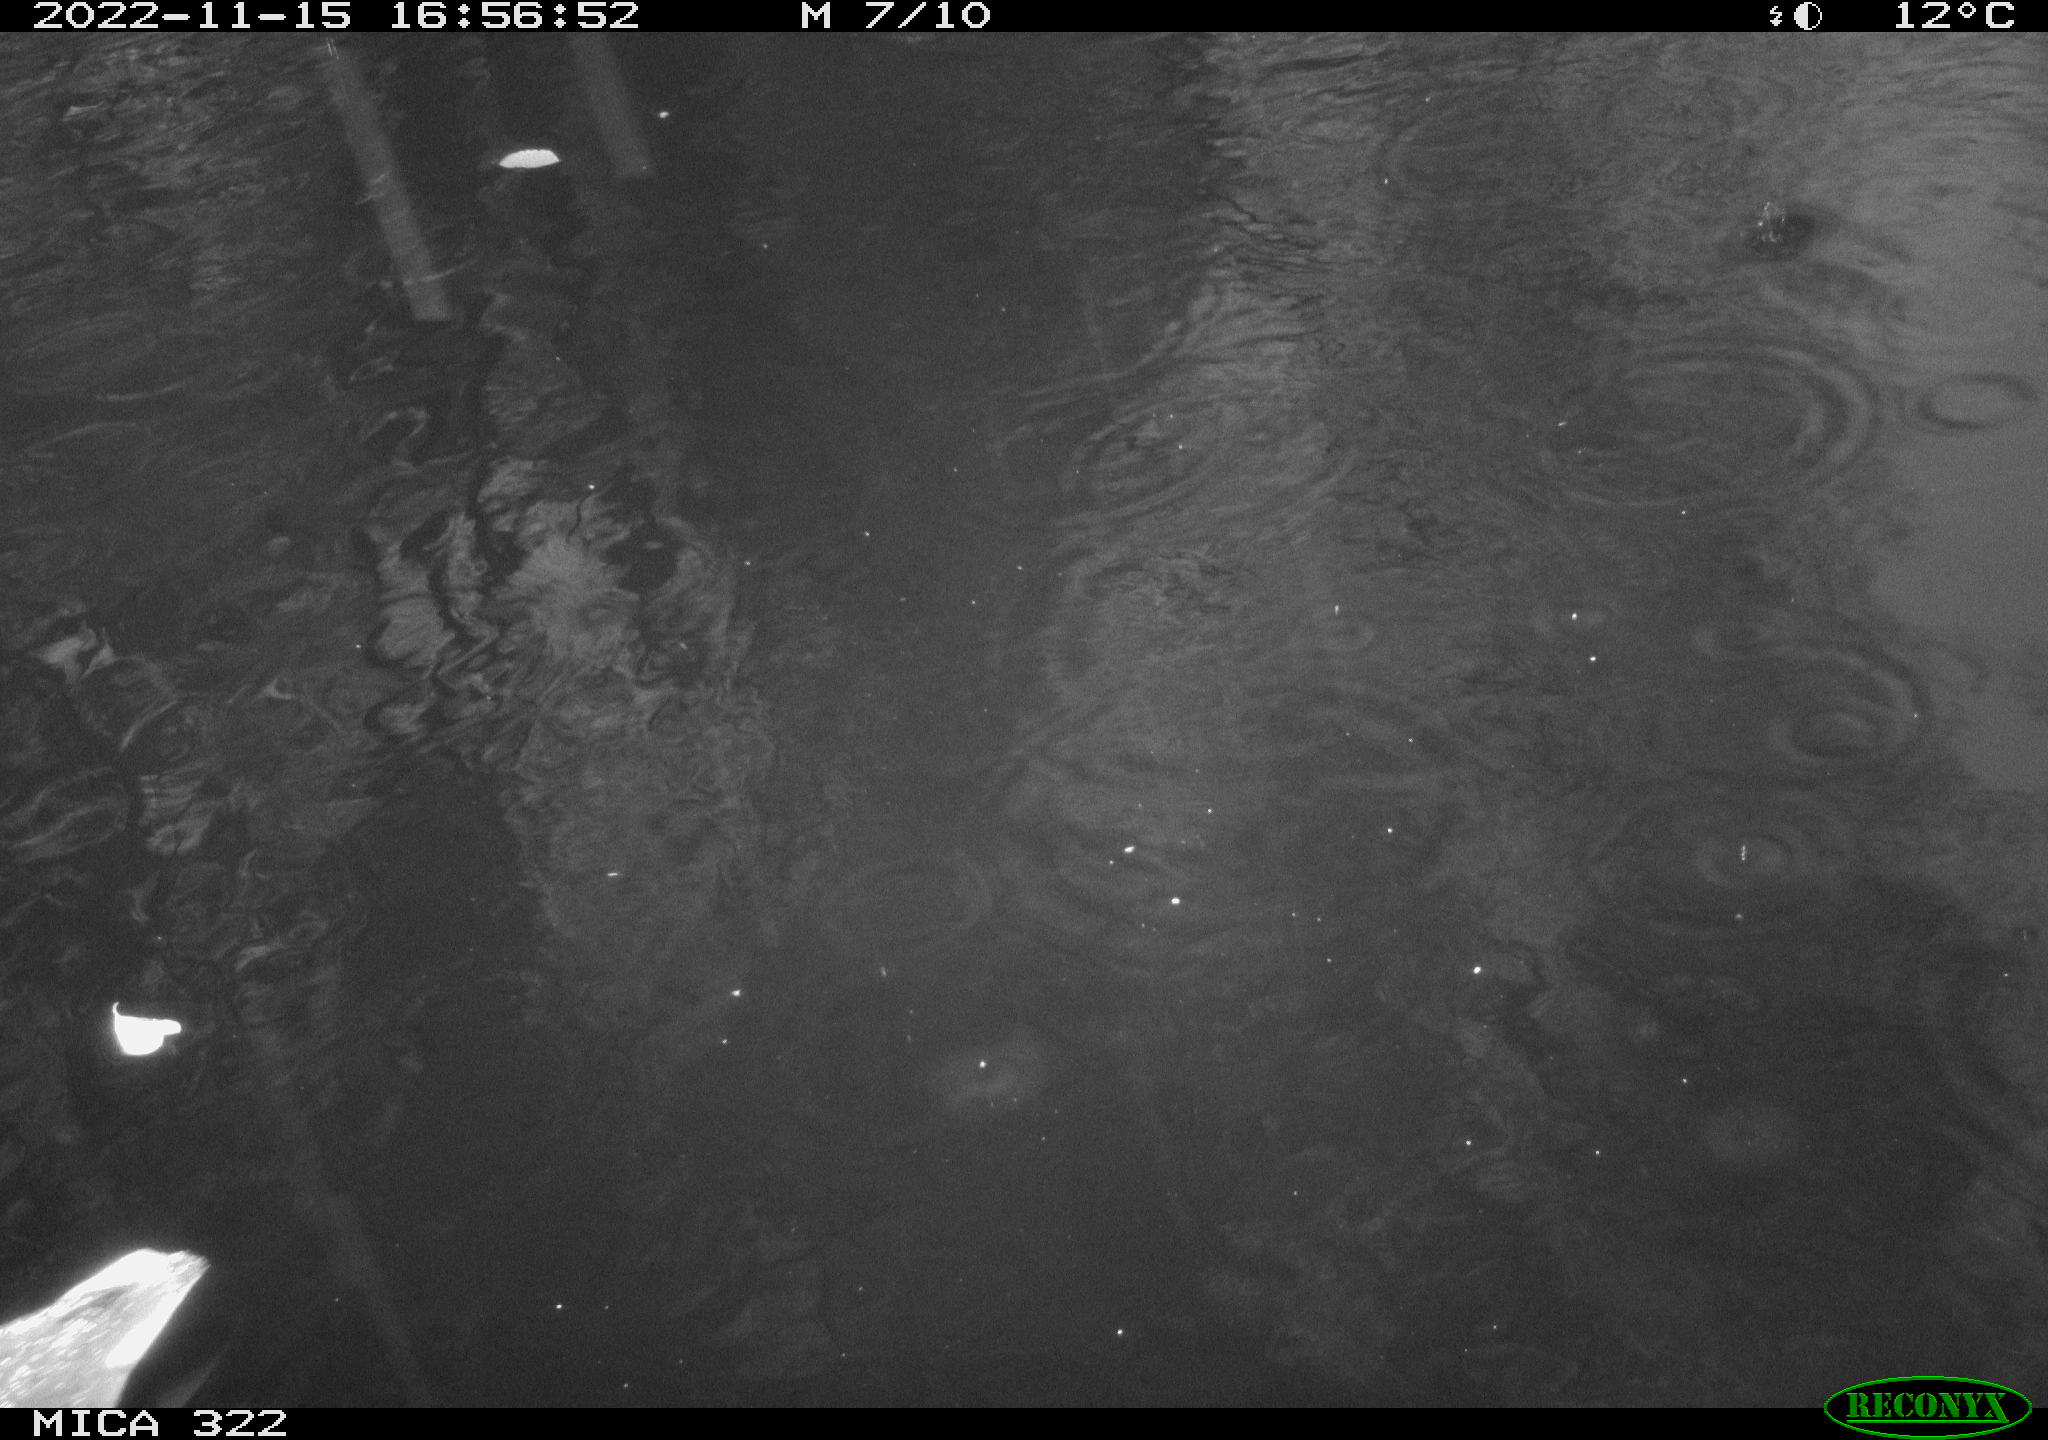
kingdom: Animalia
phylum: Chordata
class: Aves
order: Anseriformes
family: Anatidae
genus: Anas
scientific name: Anas
